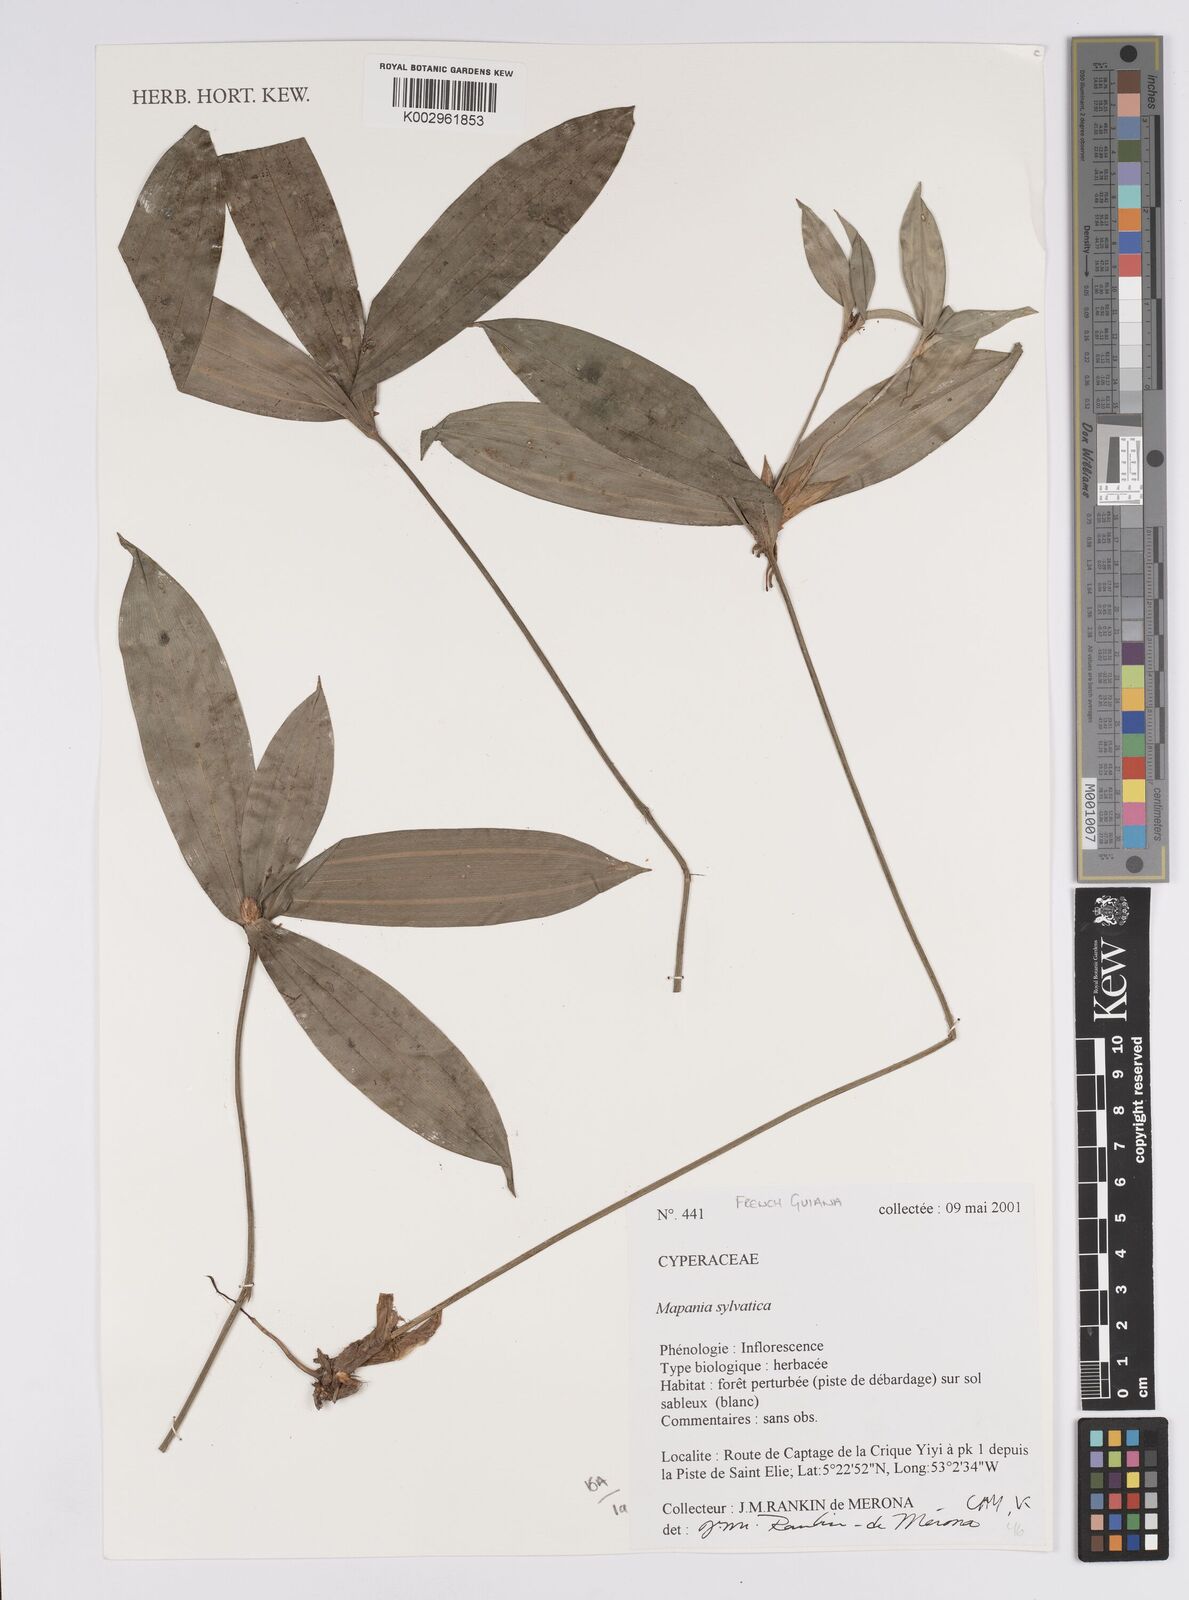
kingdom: Plantae
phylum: Tracheophyta
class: Liliopsida
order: Poales
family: Cyperaceae
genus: Mapania
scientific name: Mapania sylvatica
